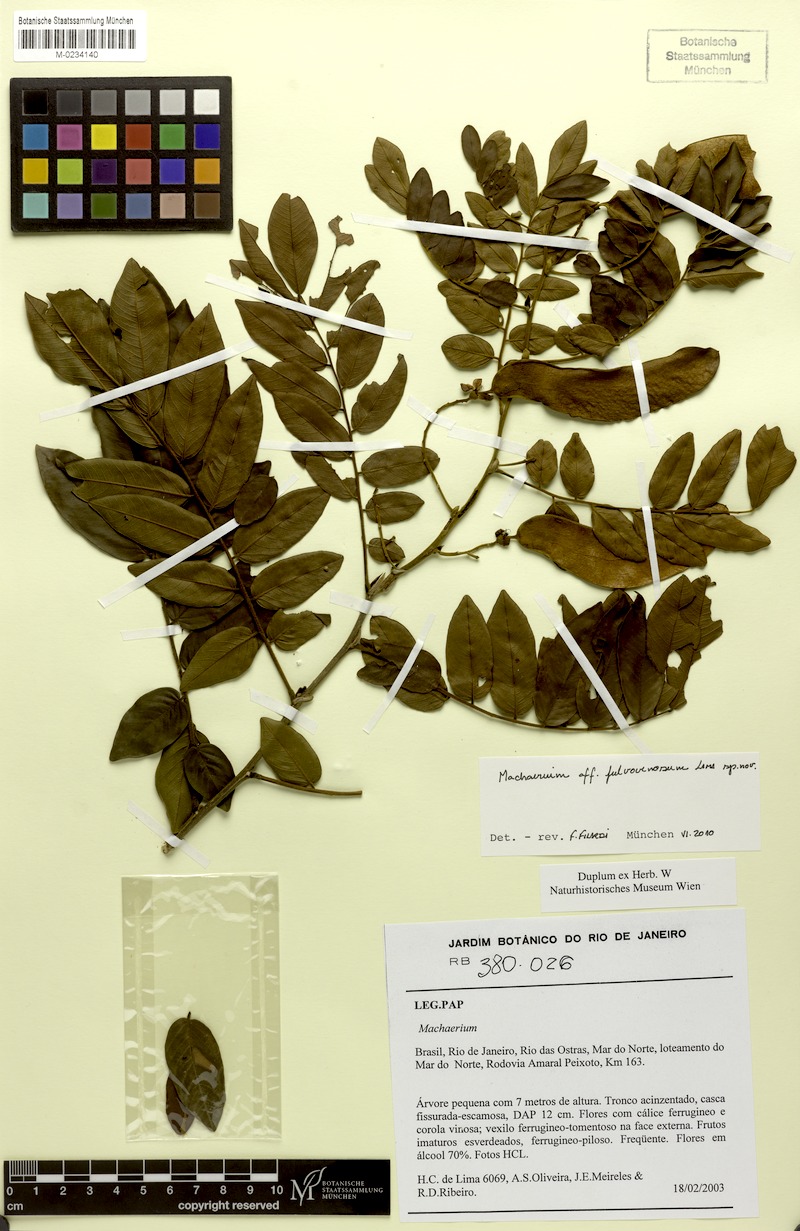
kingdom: Plantae
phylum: Tracheophyta
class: Magnoliopsida
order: Fabales
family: Fabaceae
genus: Machaerium
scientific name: Machaerium robsonianum
